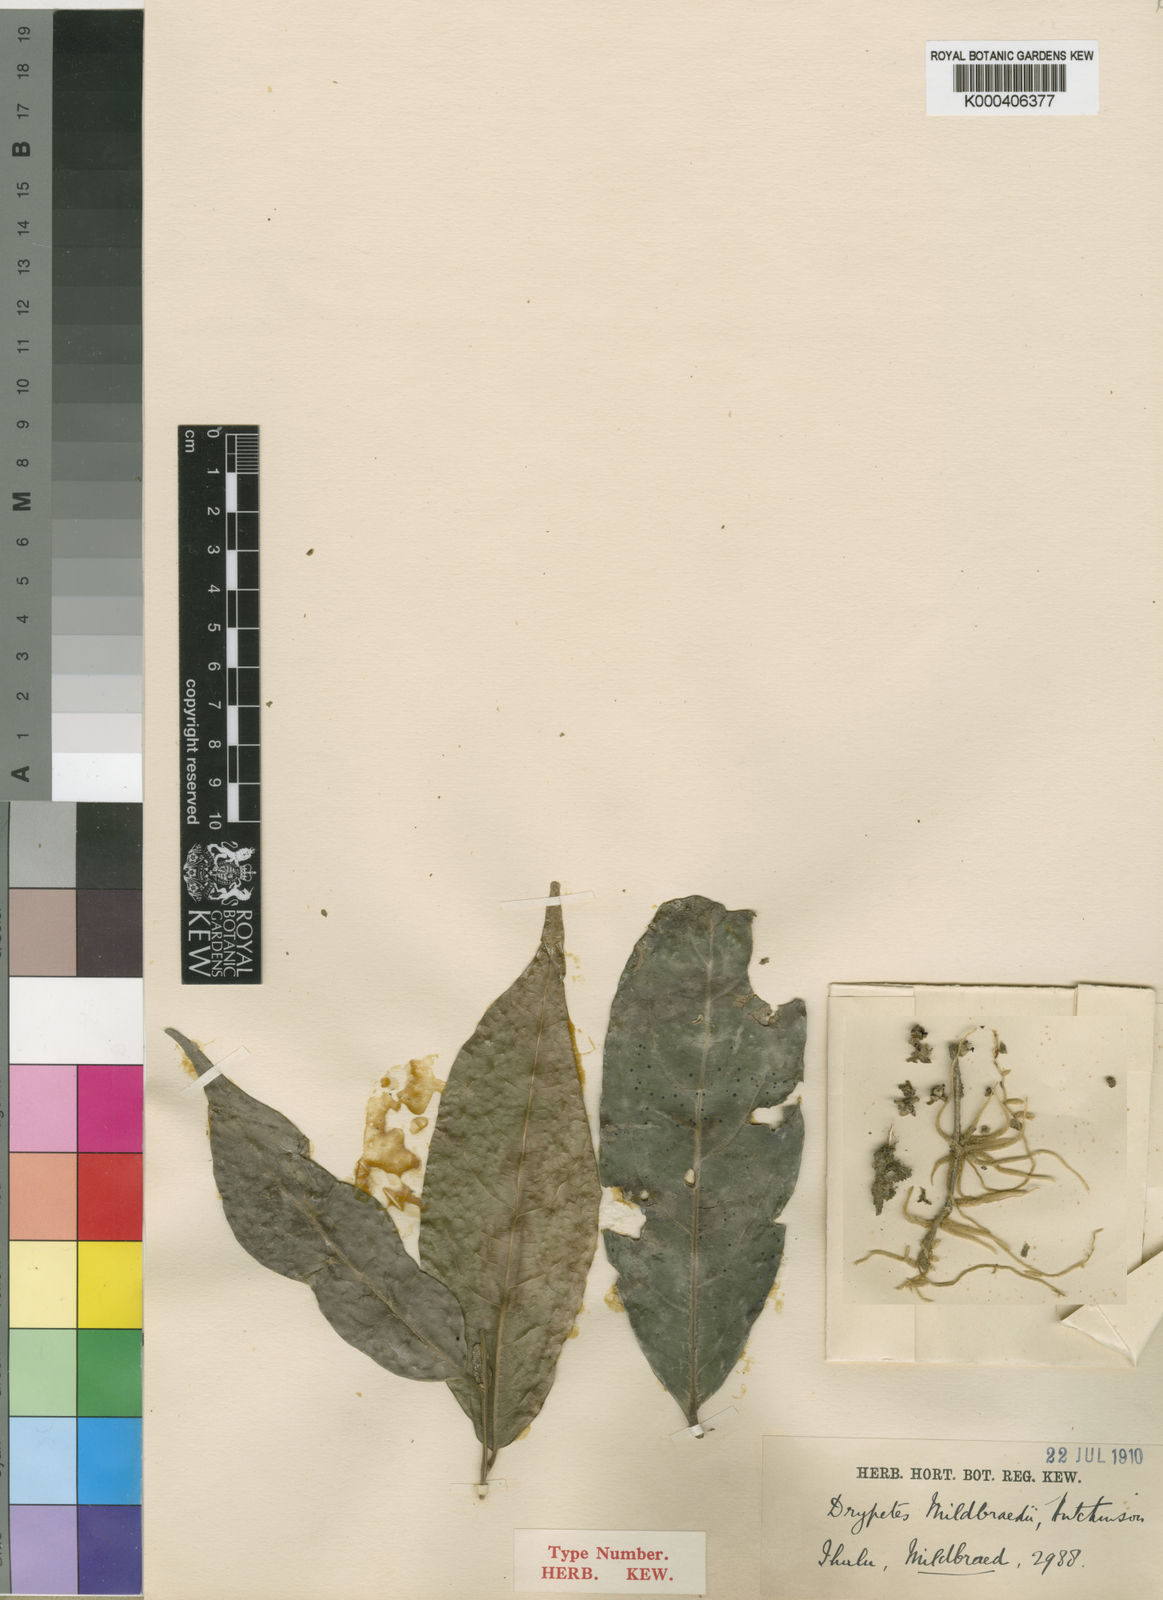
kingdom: Plantae
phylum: Tracheophyta
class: Magnoliopsida
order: Malpighiales
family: Putranjivaceae
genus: Drypetes
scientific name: Drypetes mildbraedii
